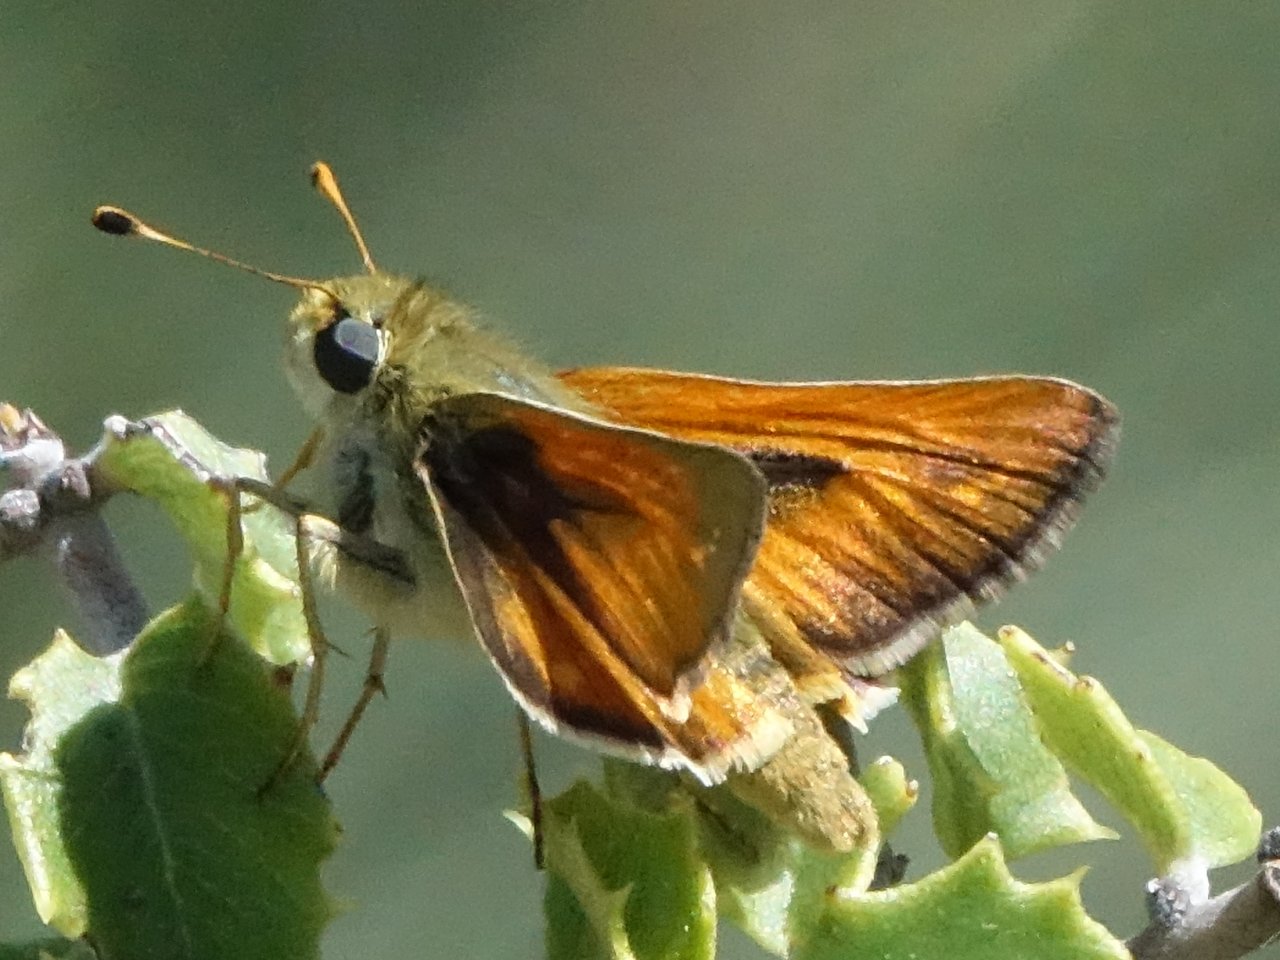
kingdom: Animalia
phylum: Arthropoda
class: Insecta
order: Lepidoptera
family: Hesperiidae
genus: Ochlodes
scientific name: Ochlodes agricola
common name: Rural Skipper
